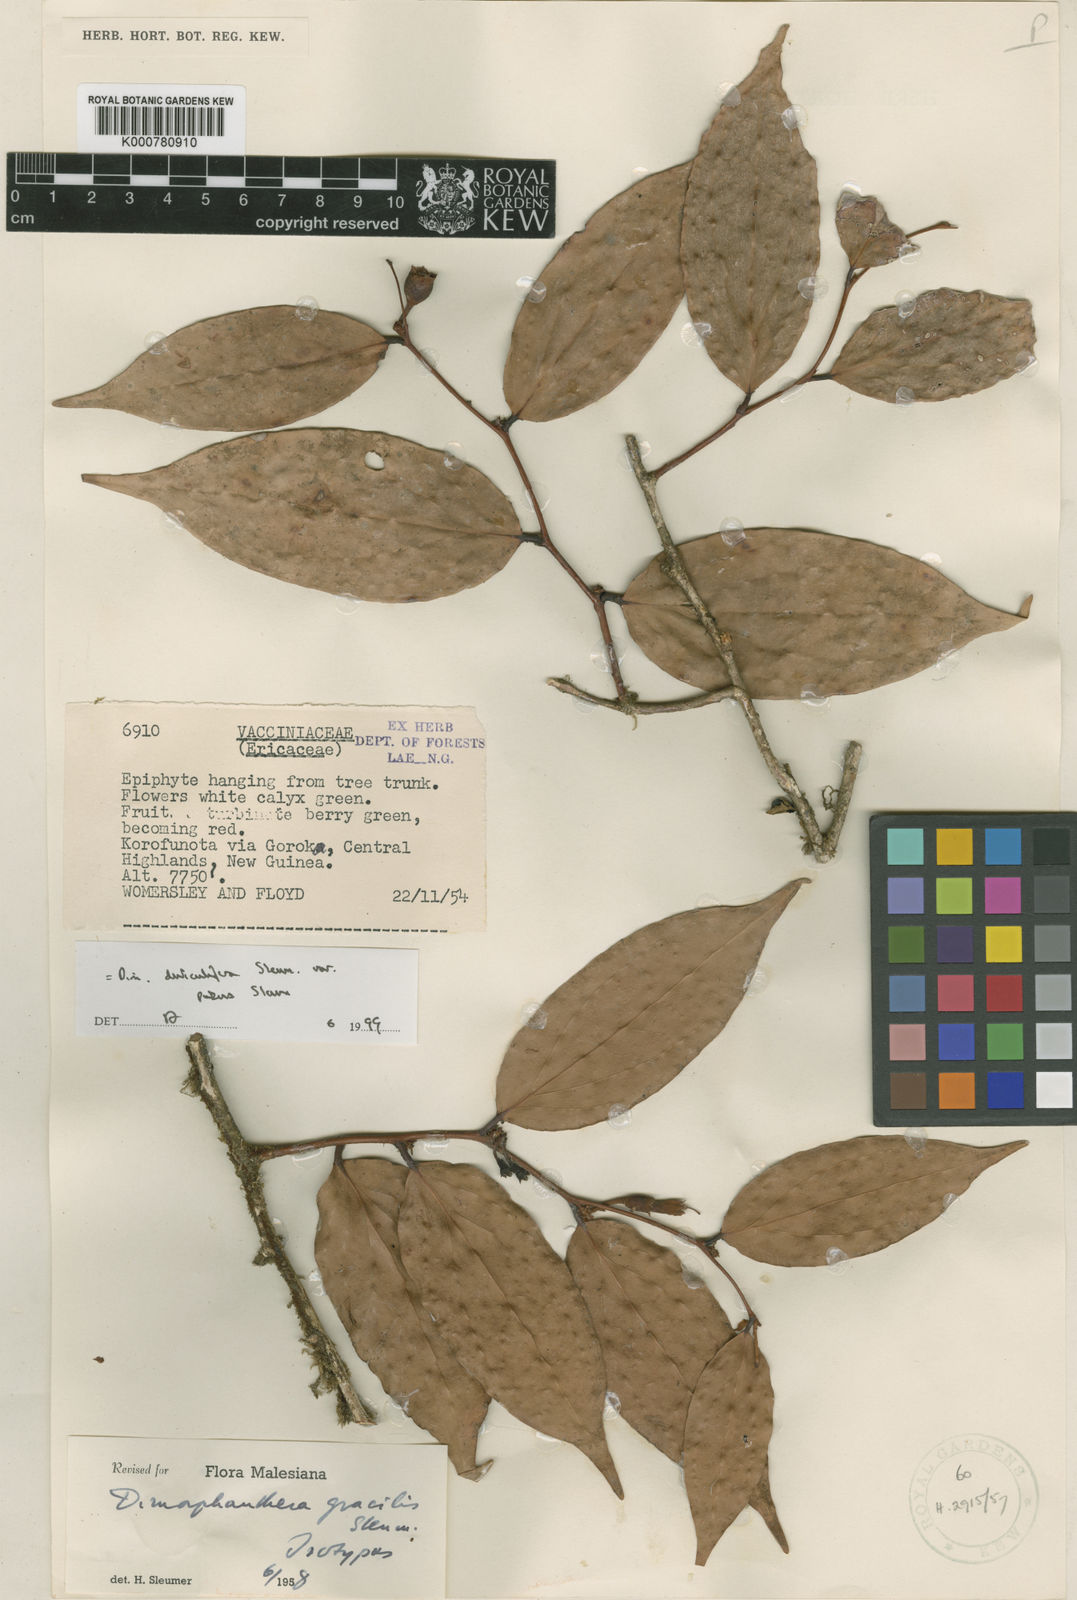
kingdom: Plantae
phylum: Tracheophyta
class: Magnoliopsida
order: Ericales
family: Ericaceae
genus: Dimorphanthera
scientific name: Dimorphanthera denticulifera
